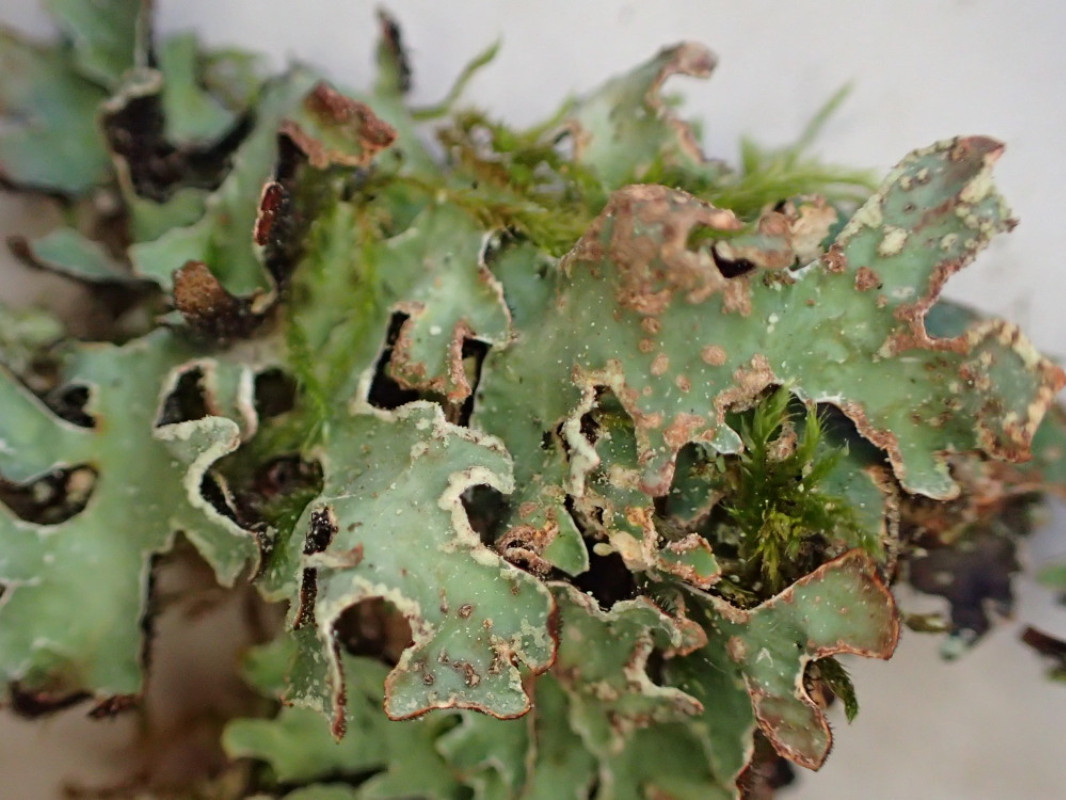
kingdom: Fungi
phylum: Ascomycota
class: Lecanoromycetes
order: Lecanorales
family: Parmeliaceae
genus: Parmelia
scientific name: Parmelia sulcata
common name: rynket skållav
